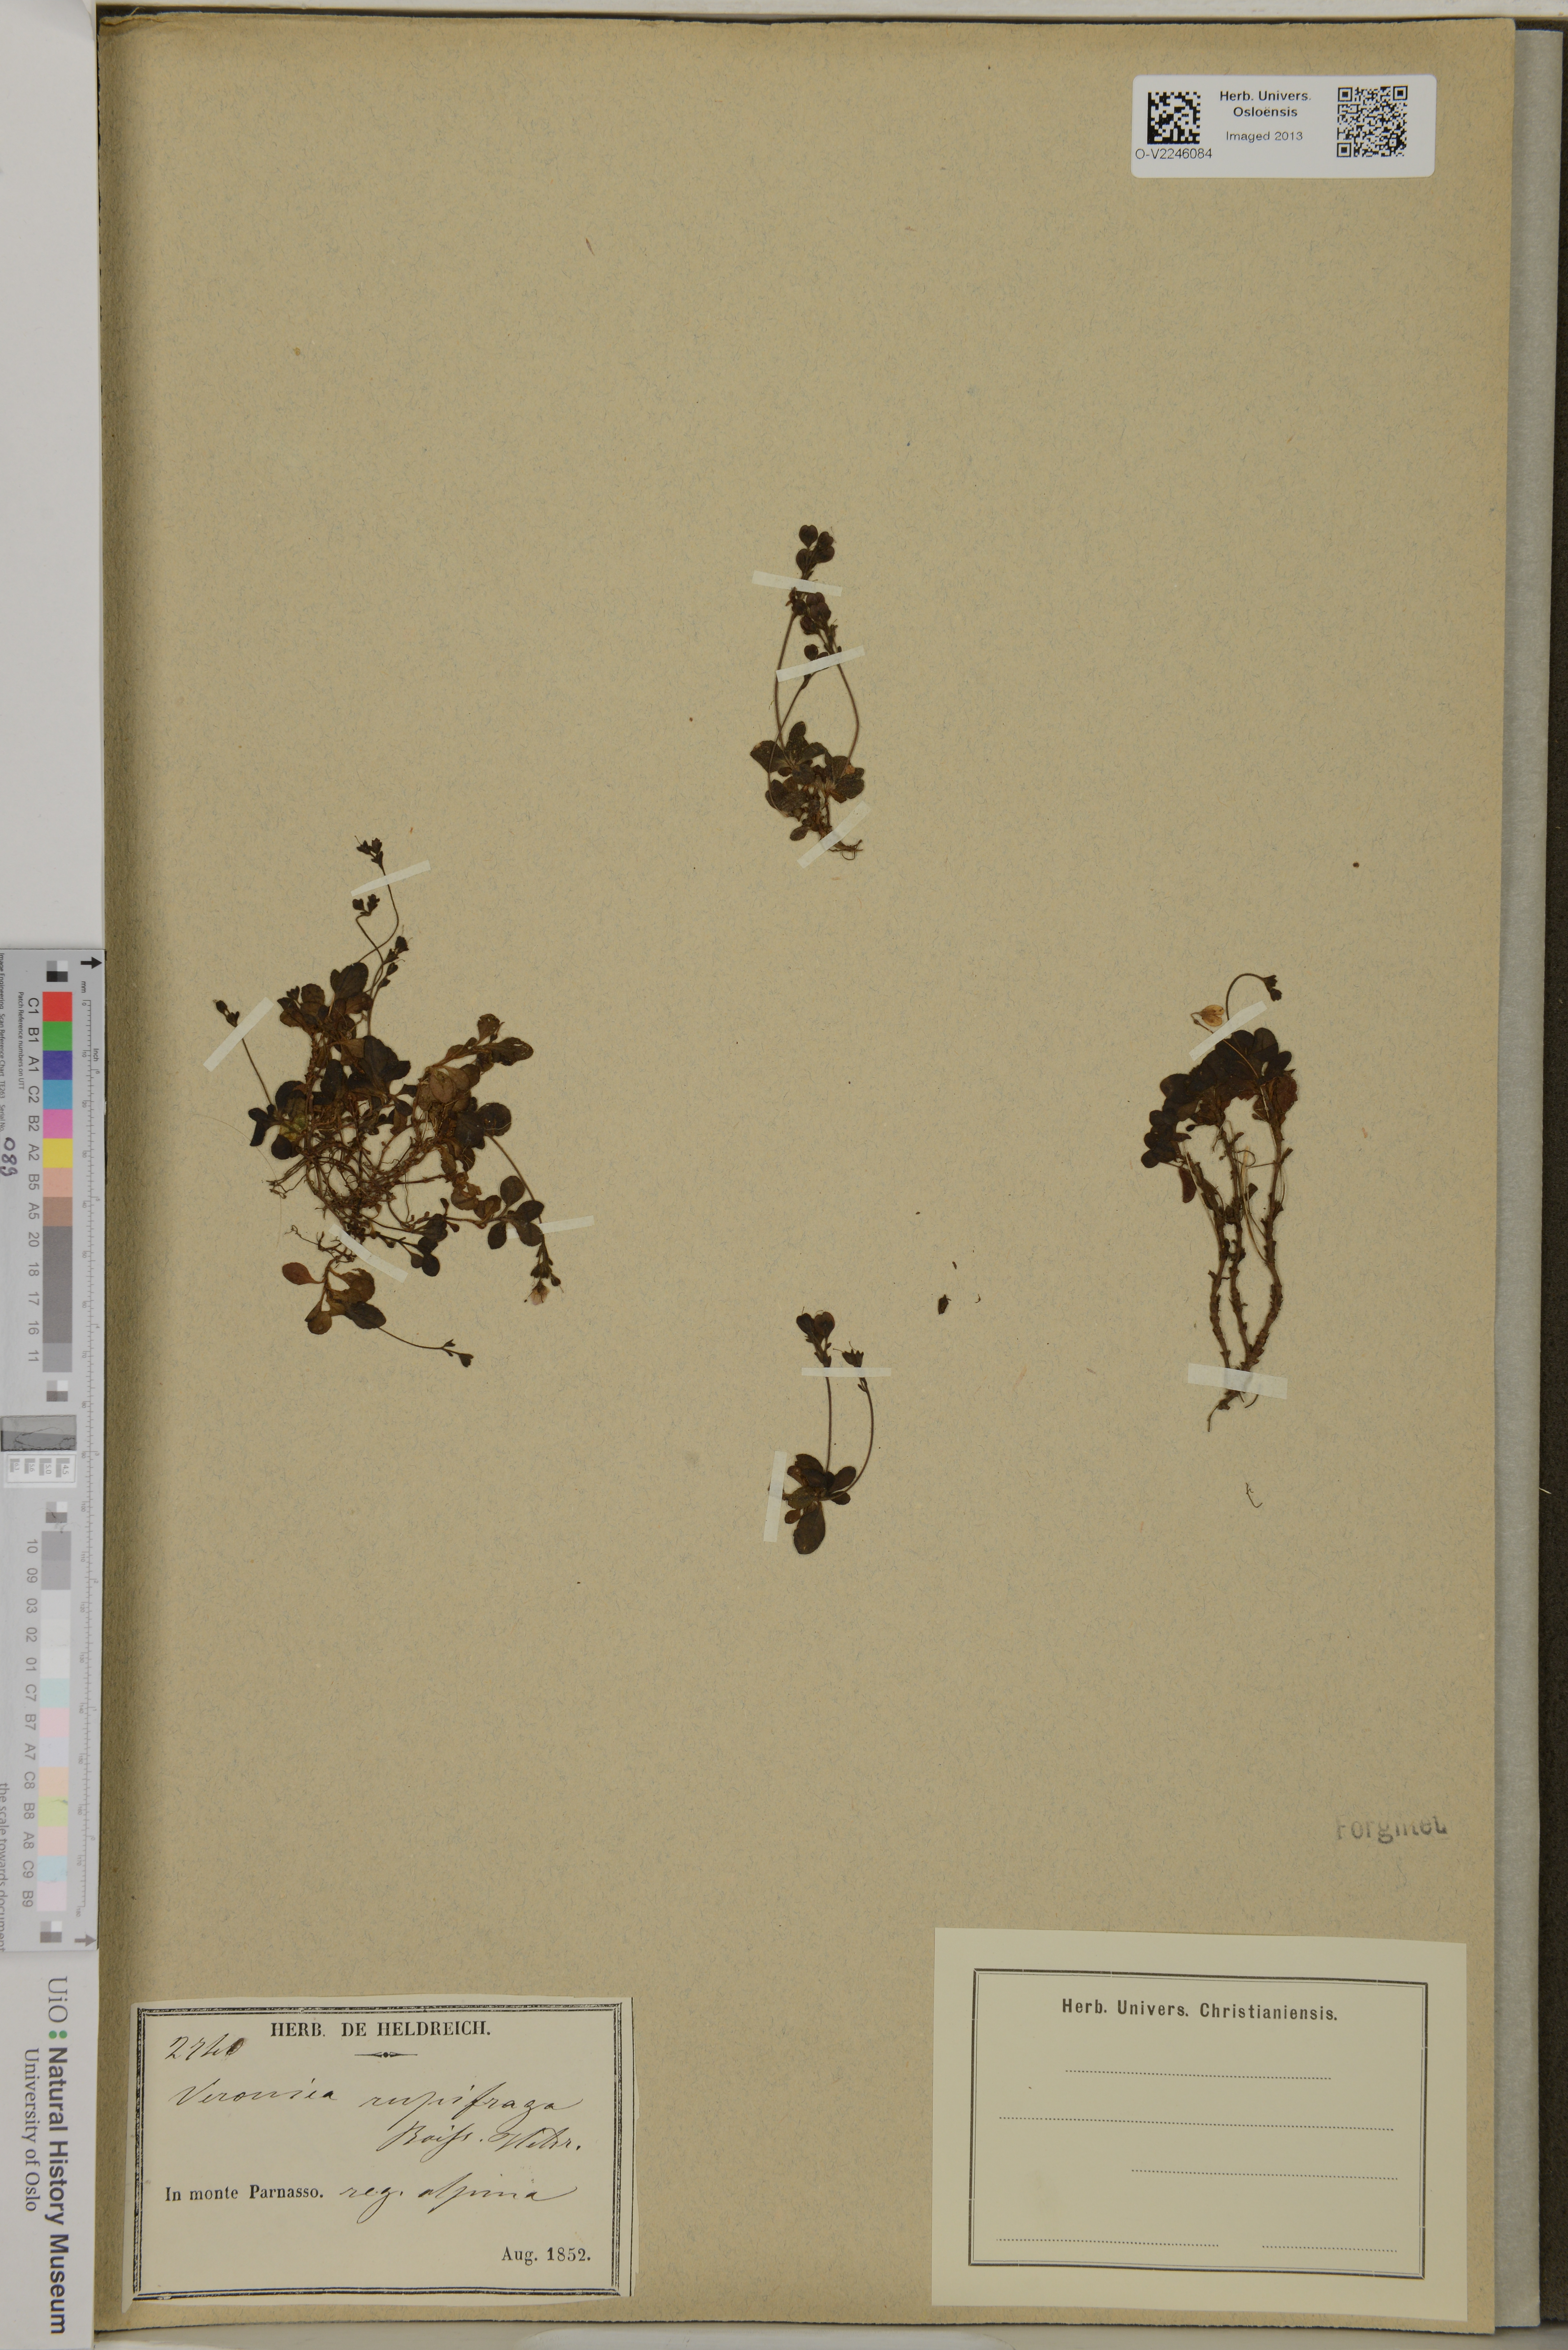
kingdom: Plantae
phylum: Tracheophyta
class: Magnoliopsida
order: Lamiales
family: Plantaginaceae
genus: Veronica
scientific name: Veronica
